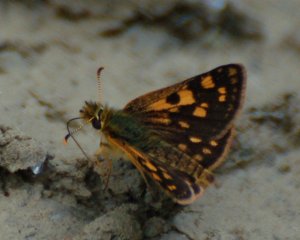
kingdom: Animalia
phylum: Arthropoda
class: Insecta
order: Lepidoptera
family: Hesperiidae
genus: Carterocephalus
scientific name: Carterocephalus palaemon
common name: Chequered Skipper
